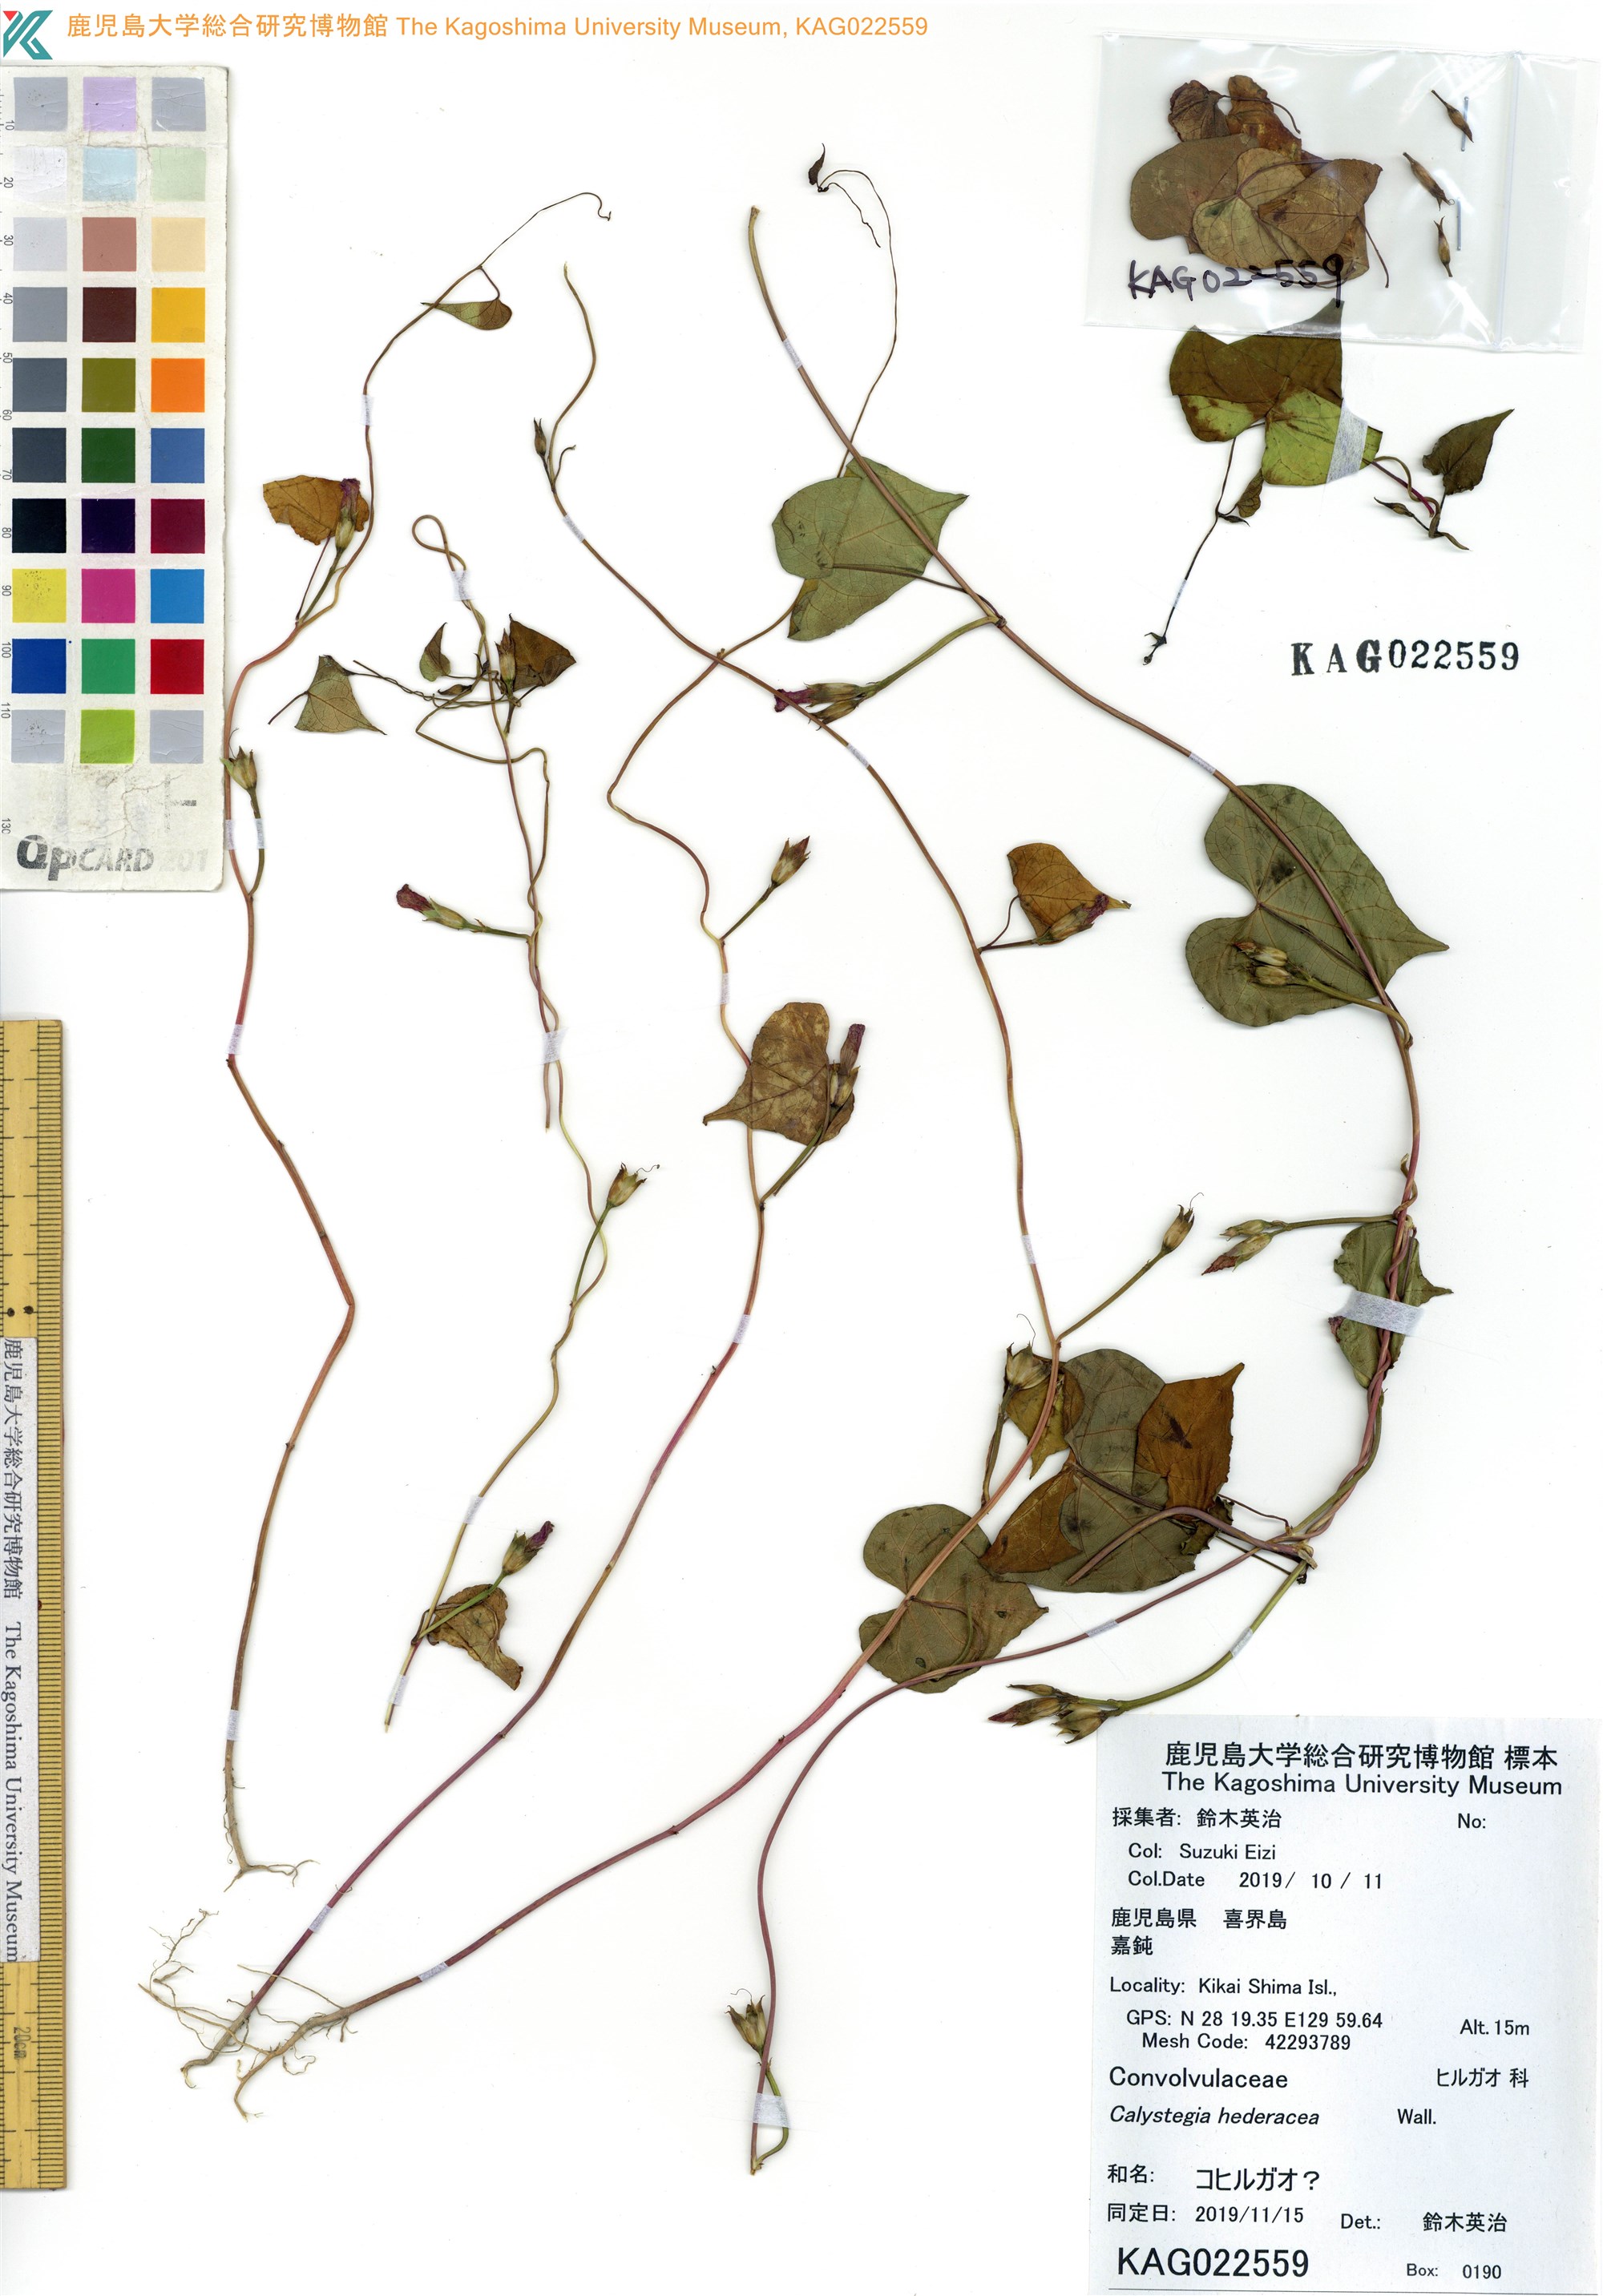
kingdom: Plantae
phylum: Tracheophyta
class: Magnoliopsida
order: Solanales
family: Convolvulaceae
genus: Calystegia
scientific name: Calystegia hederacea
